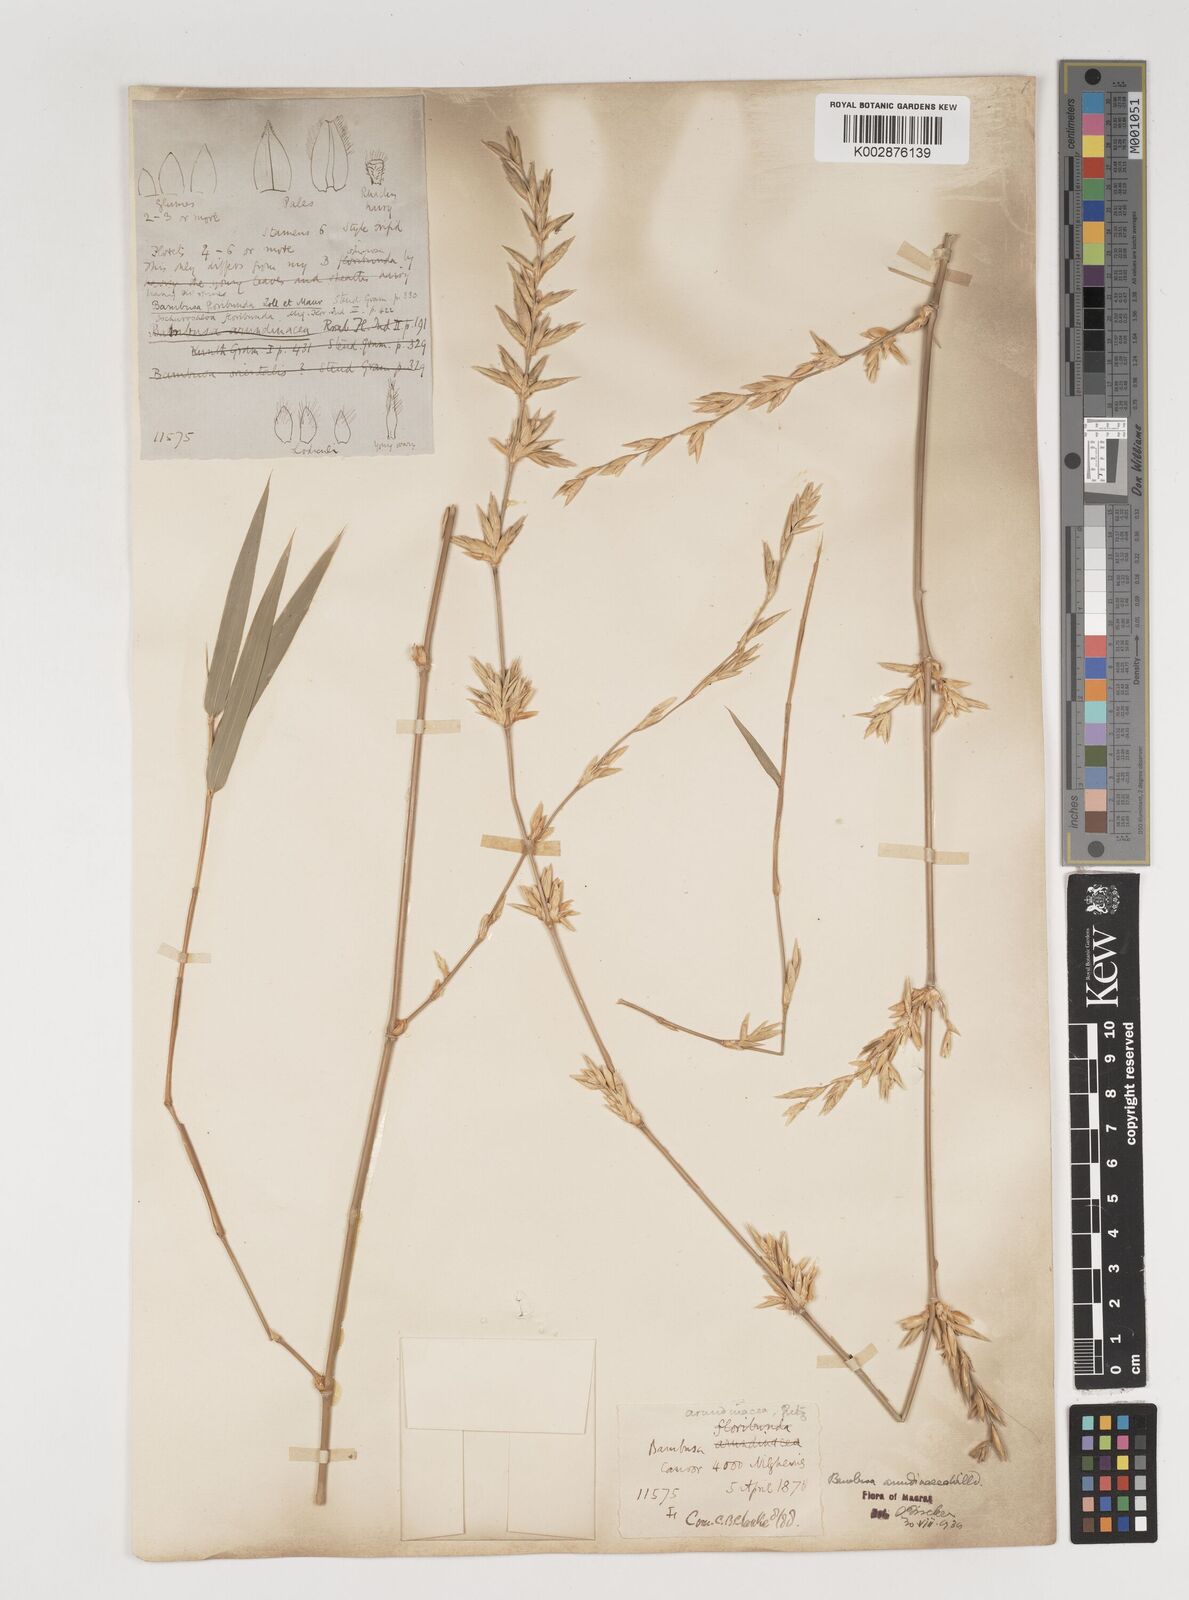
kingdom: Plantae
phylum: Tracheophyta
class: Liliopsida
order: Poales
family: Poaceae
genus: Bambusa
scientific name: Bambusa bambos
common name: Indian thorny bamboo
